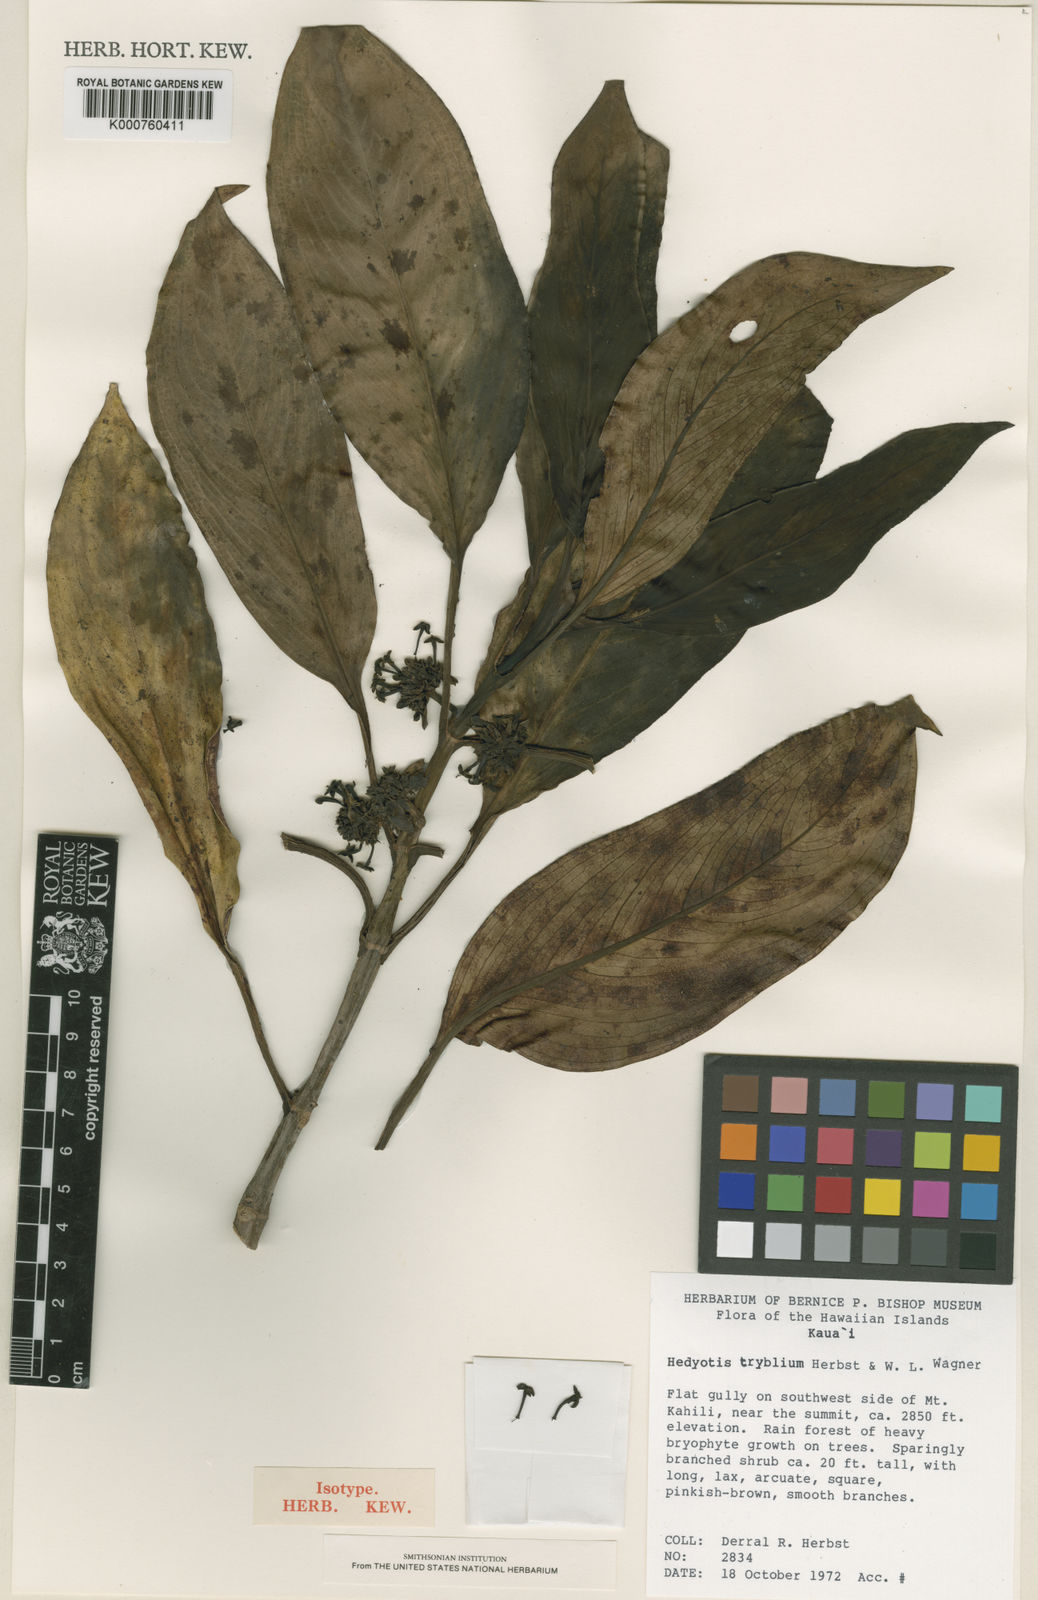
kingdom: Plantae
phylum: Tracheophyta
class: Magnoliopsida
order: Gentianales
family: Rubiaceae
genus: Kadua
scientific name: Kadua tryblium
